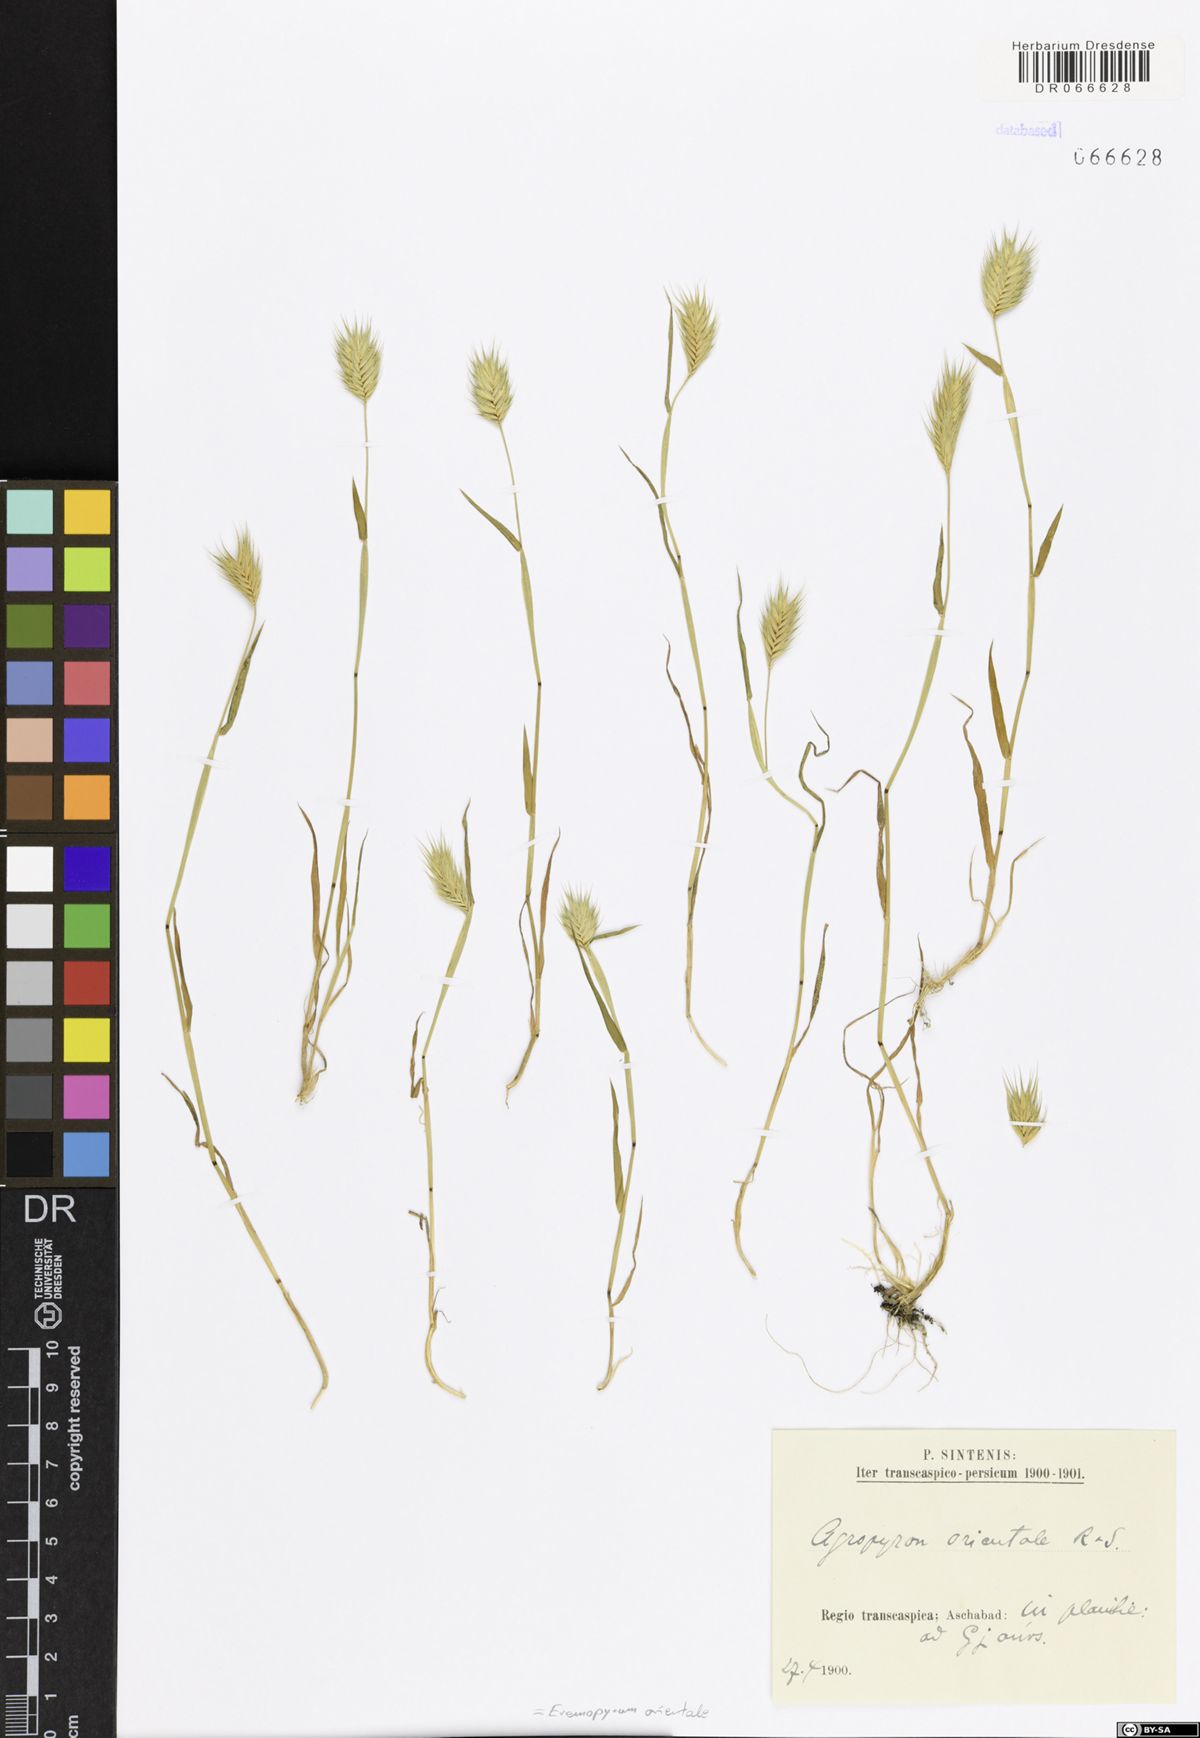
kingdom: Plantae
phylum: Tracheophyta
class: Liliopsida
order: Poales
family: Poaceae
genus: Eremopyrum
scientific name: Eremopyrum orientale
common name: Oriental false wheatgrass
